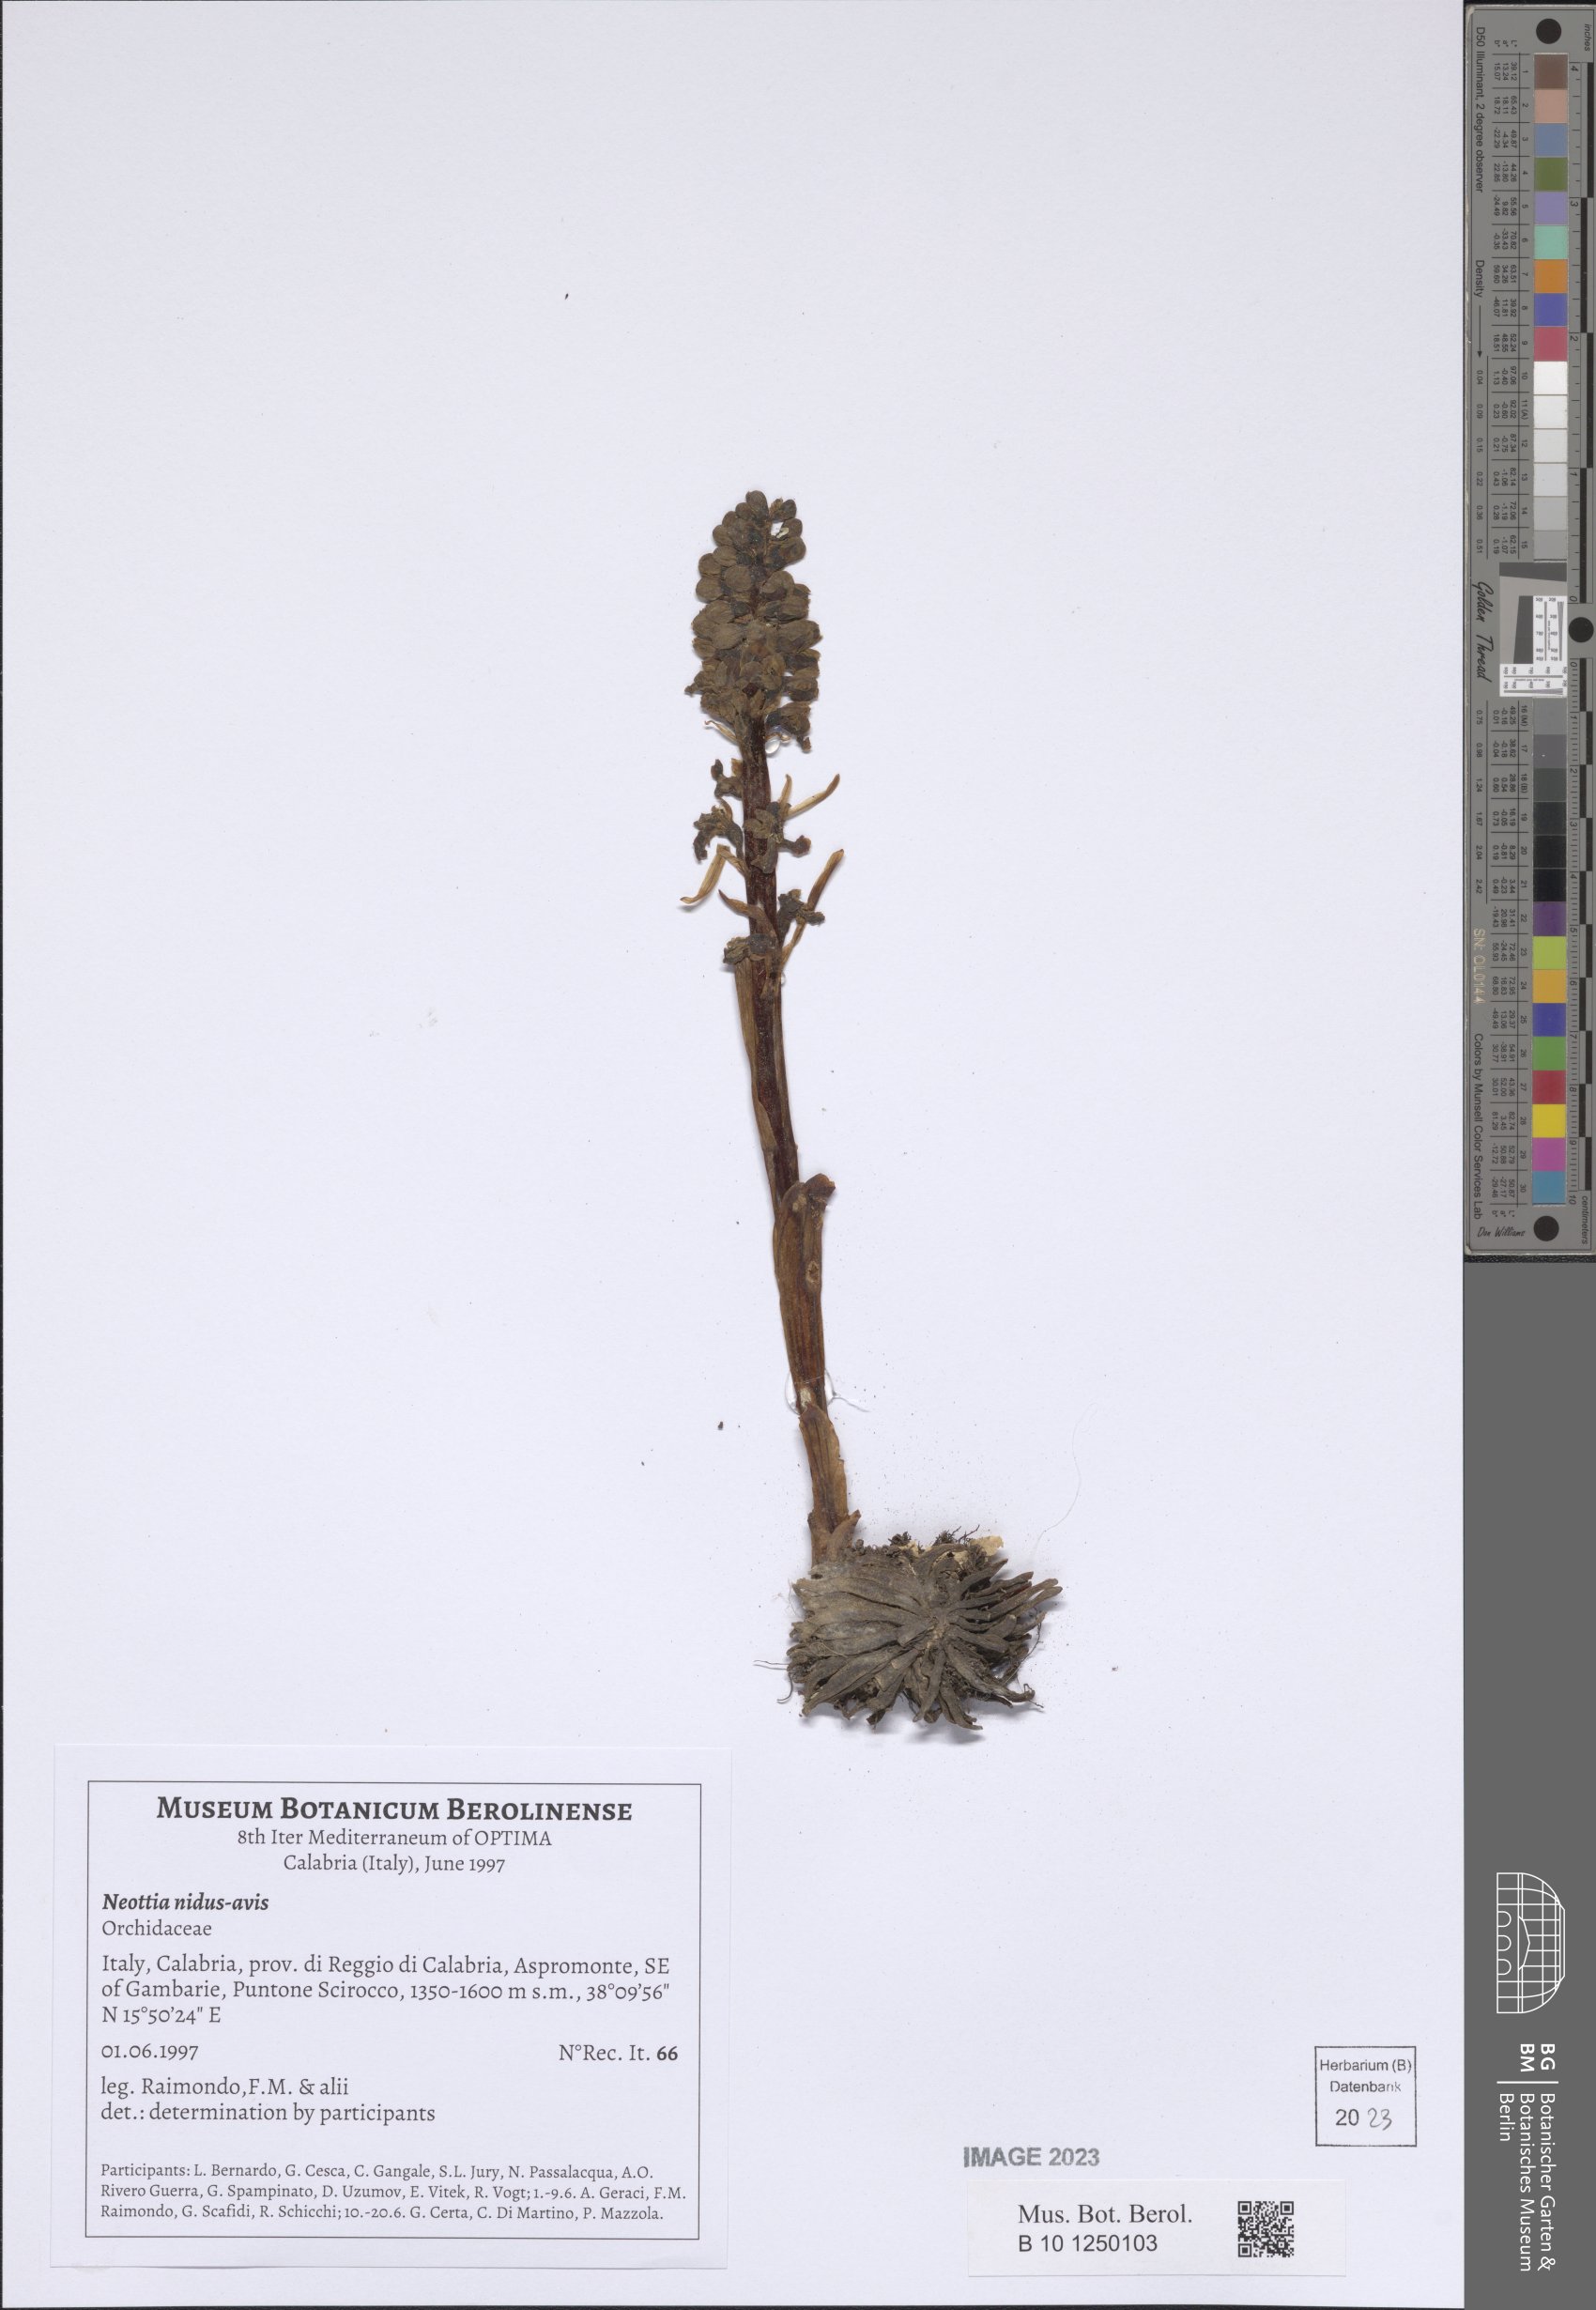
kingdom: Plantae
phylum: Tracheophyta
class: Liliopsida
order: Asparagales
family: Orchidaceae
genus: Neottia
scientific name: Neottia nidus-avis
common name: Bird's-nest orchid
